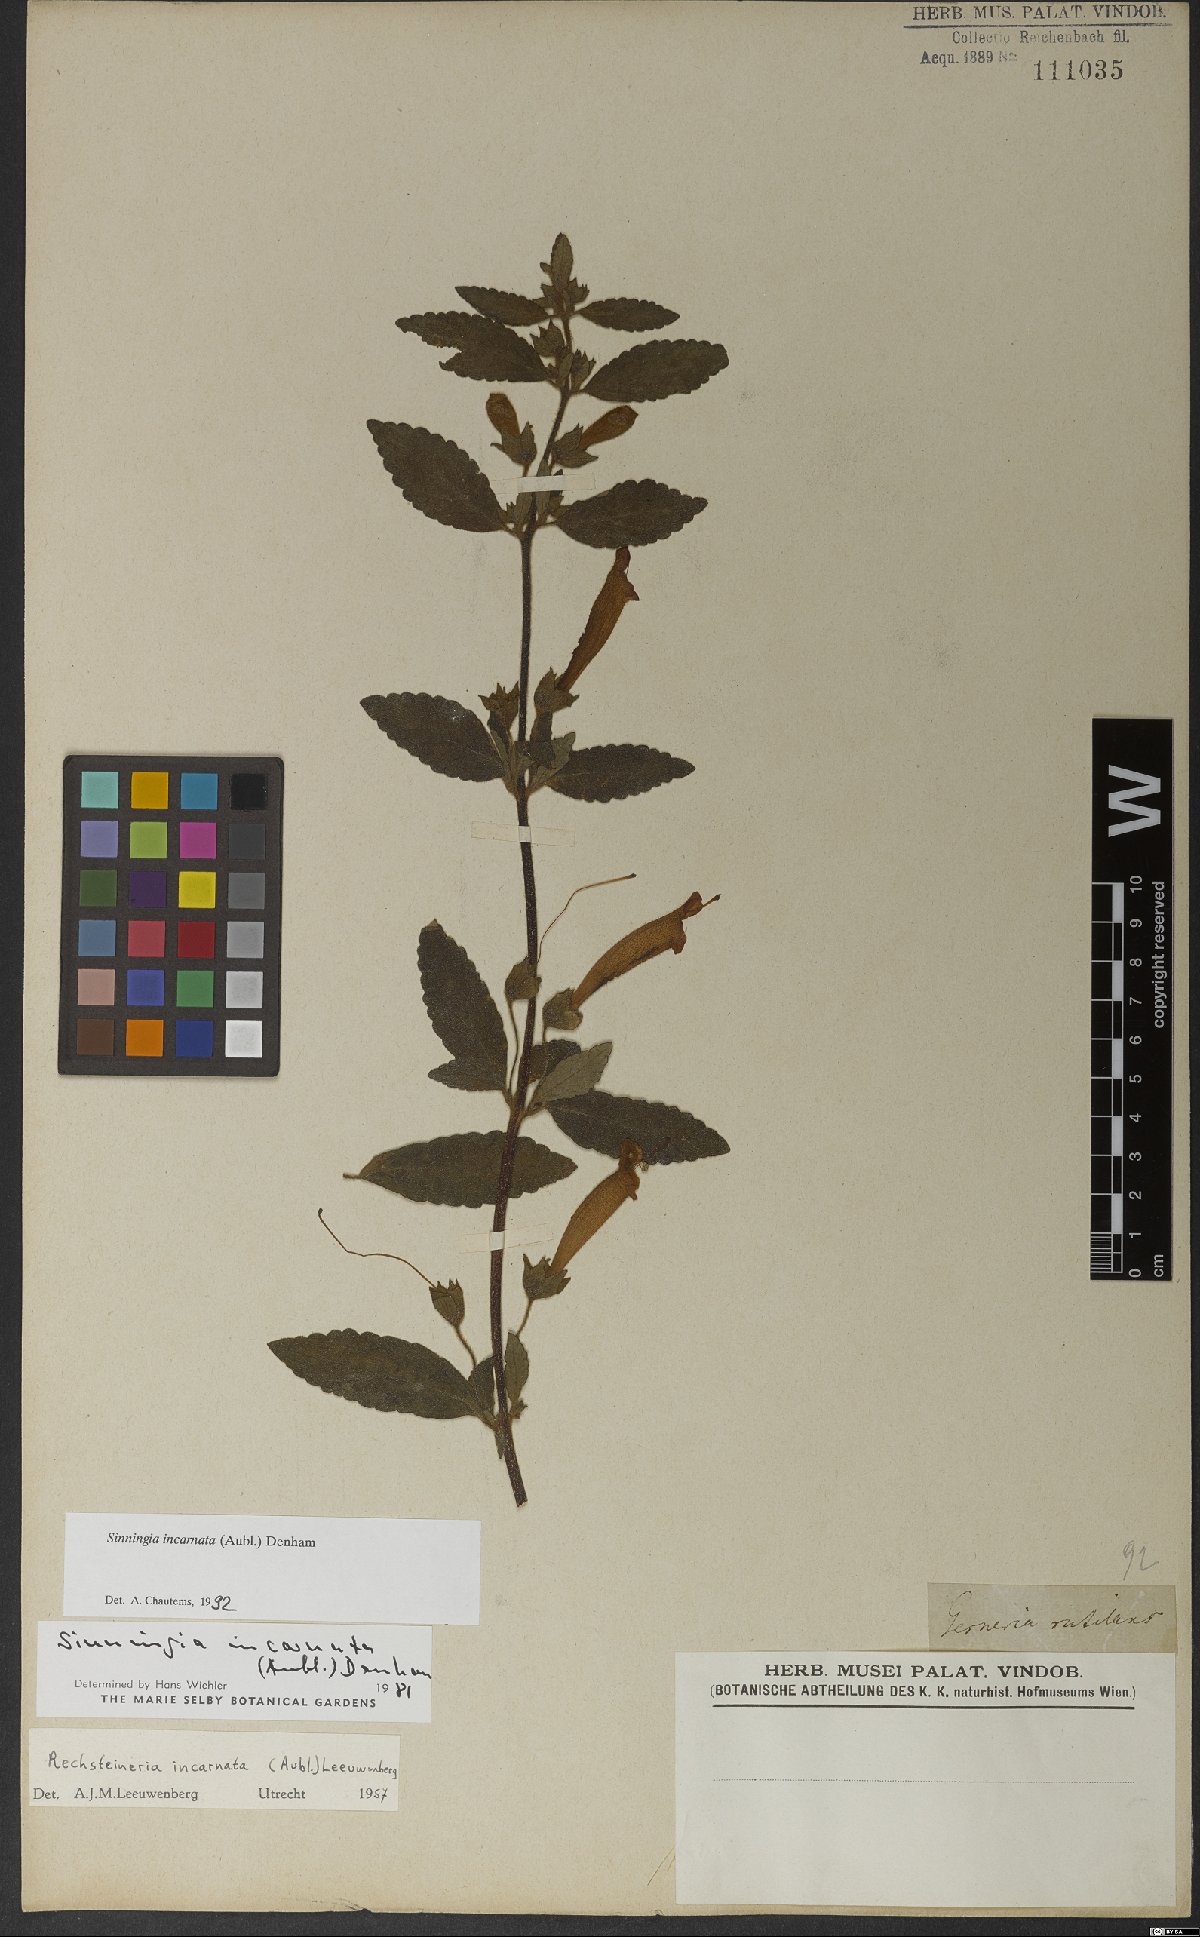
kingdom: Plantae
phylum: Tracheophyta
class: Magnoliopsida
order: Lamiales
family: Gesneriaceae
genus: Sinningia
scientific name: Sinningia incarnata
